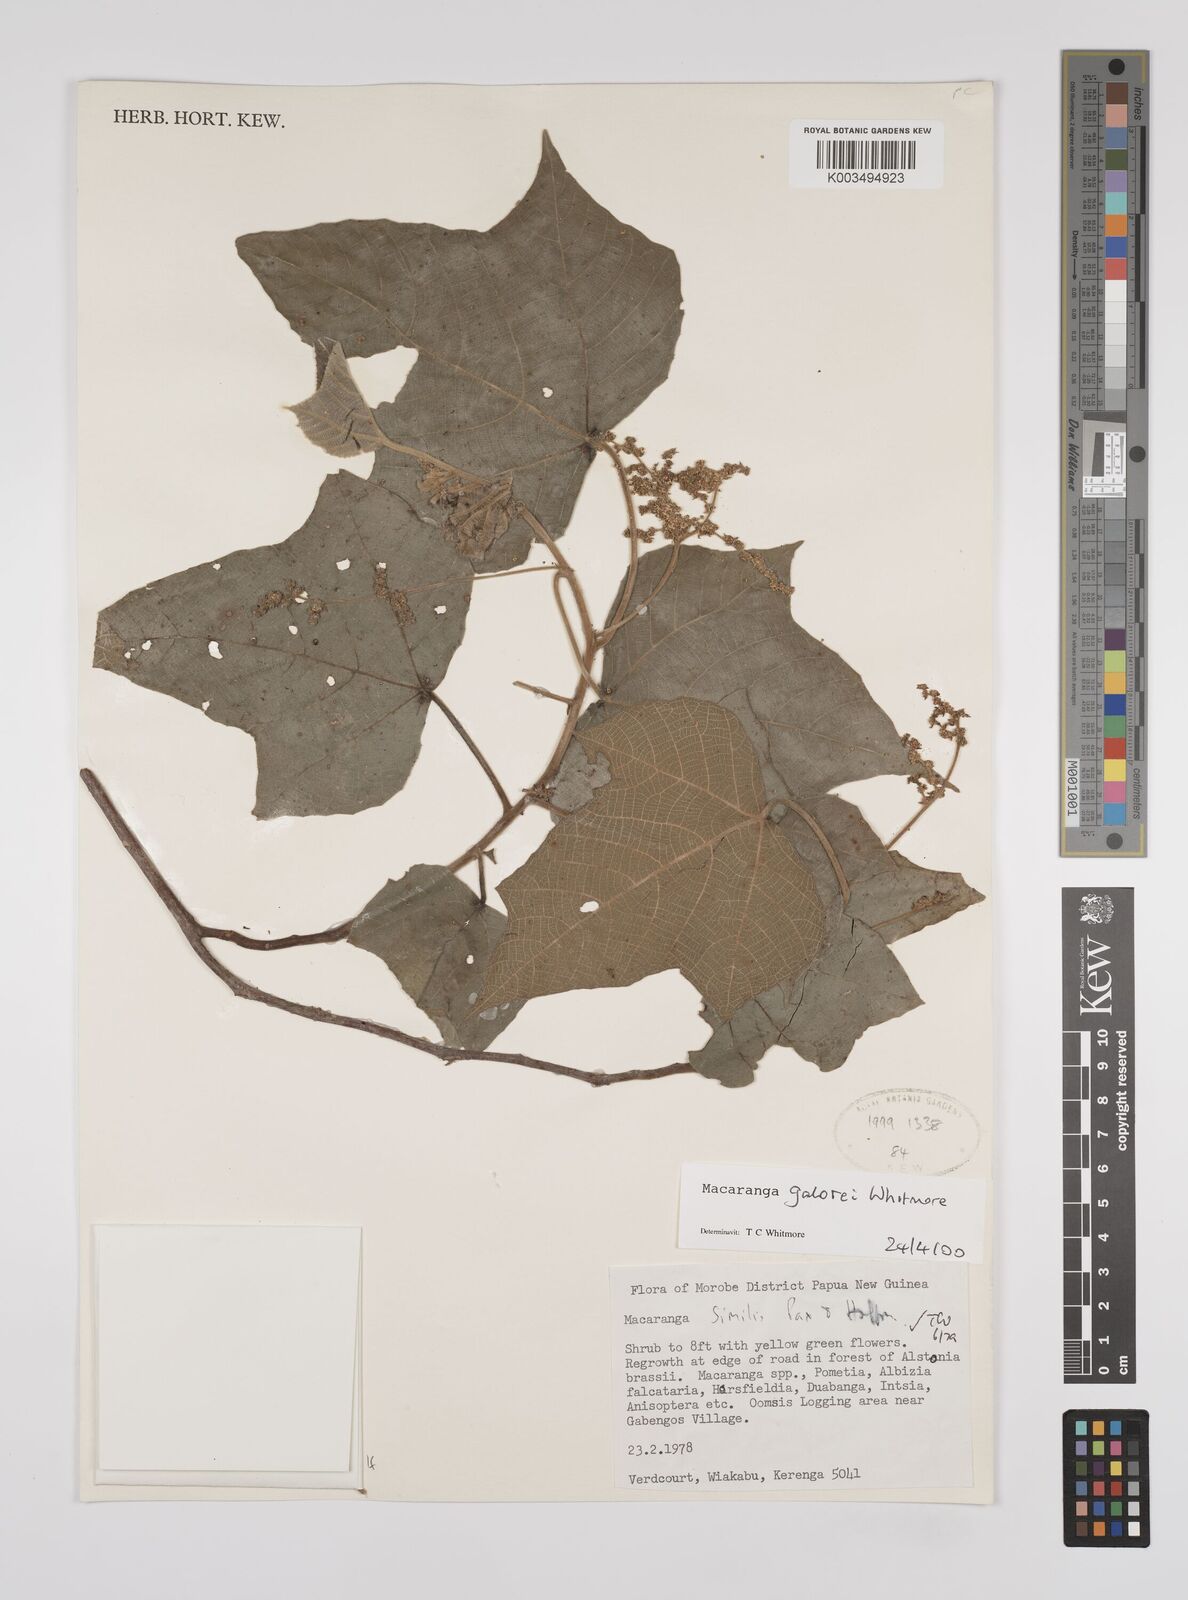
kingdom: Plantae
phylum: Tracheophyta
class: Magnoliopsida
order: Malpighiales
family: Euphorbiaceae
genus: Macaranga
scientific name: Macaranga galorei
